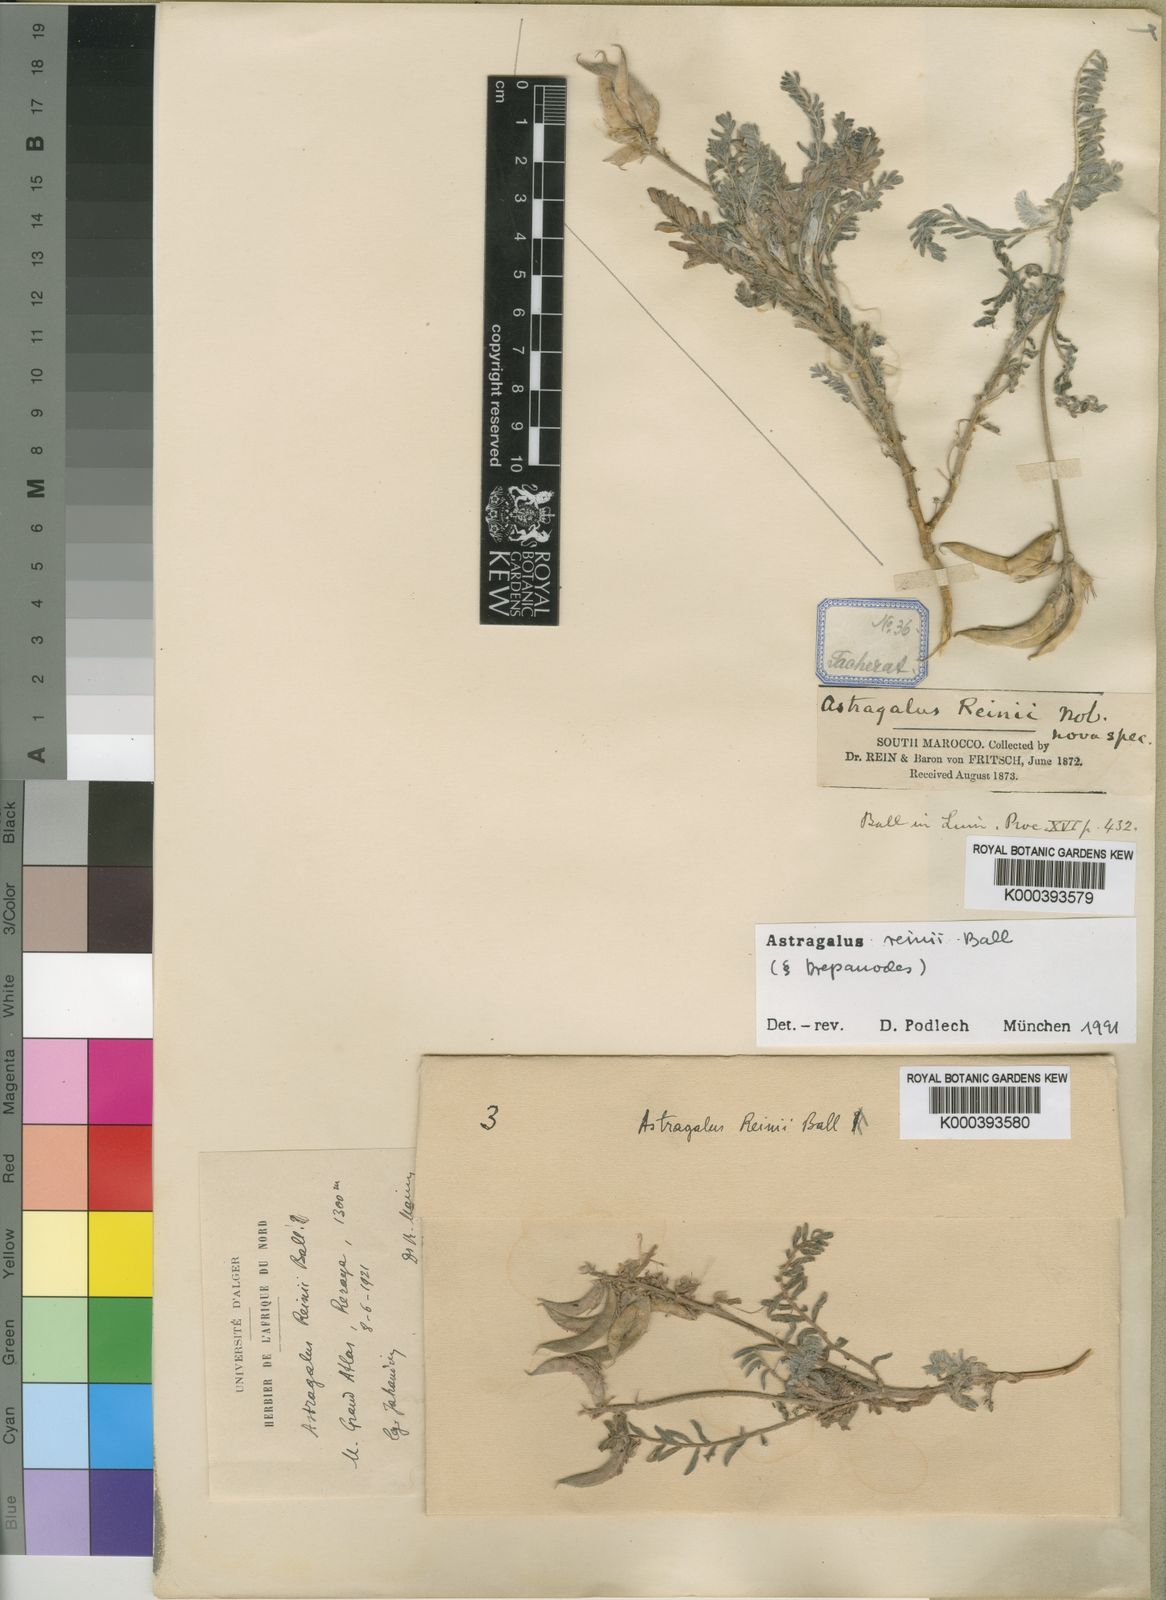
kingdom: Plantae
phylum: Tracheophyta
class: Magnoliopsida
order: Fabales
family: Fabaceae
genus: Astragalus
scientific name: Astragalus reinii
